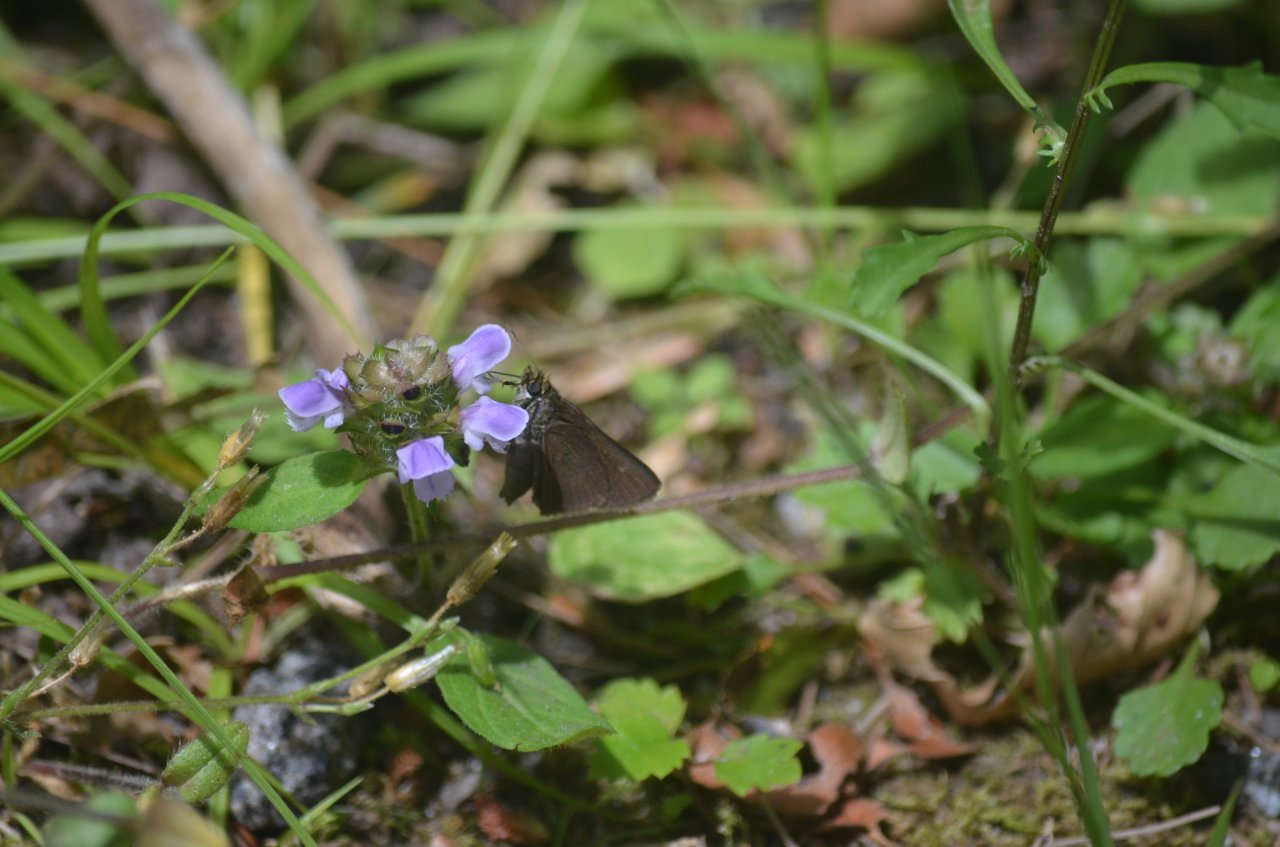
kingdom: Animalia
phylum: Arthropoda
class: Insecta
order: Lepidoptera
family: Hesperiidae
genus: Euphyes
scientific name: Euphyes vestris
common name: Dun Skipper
